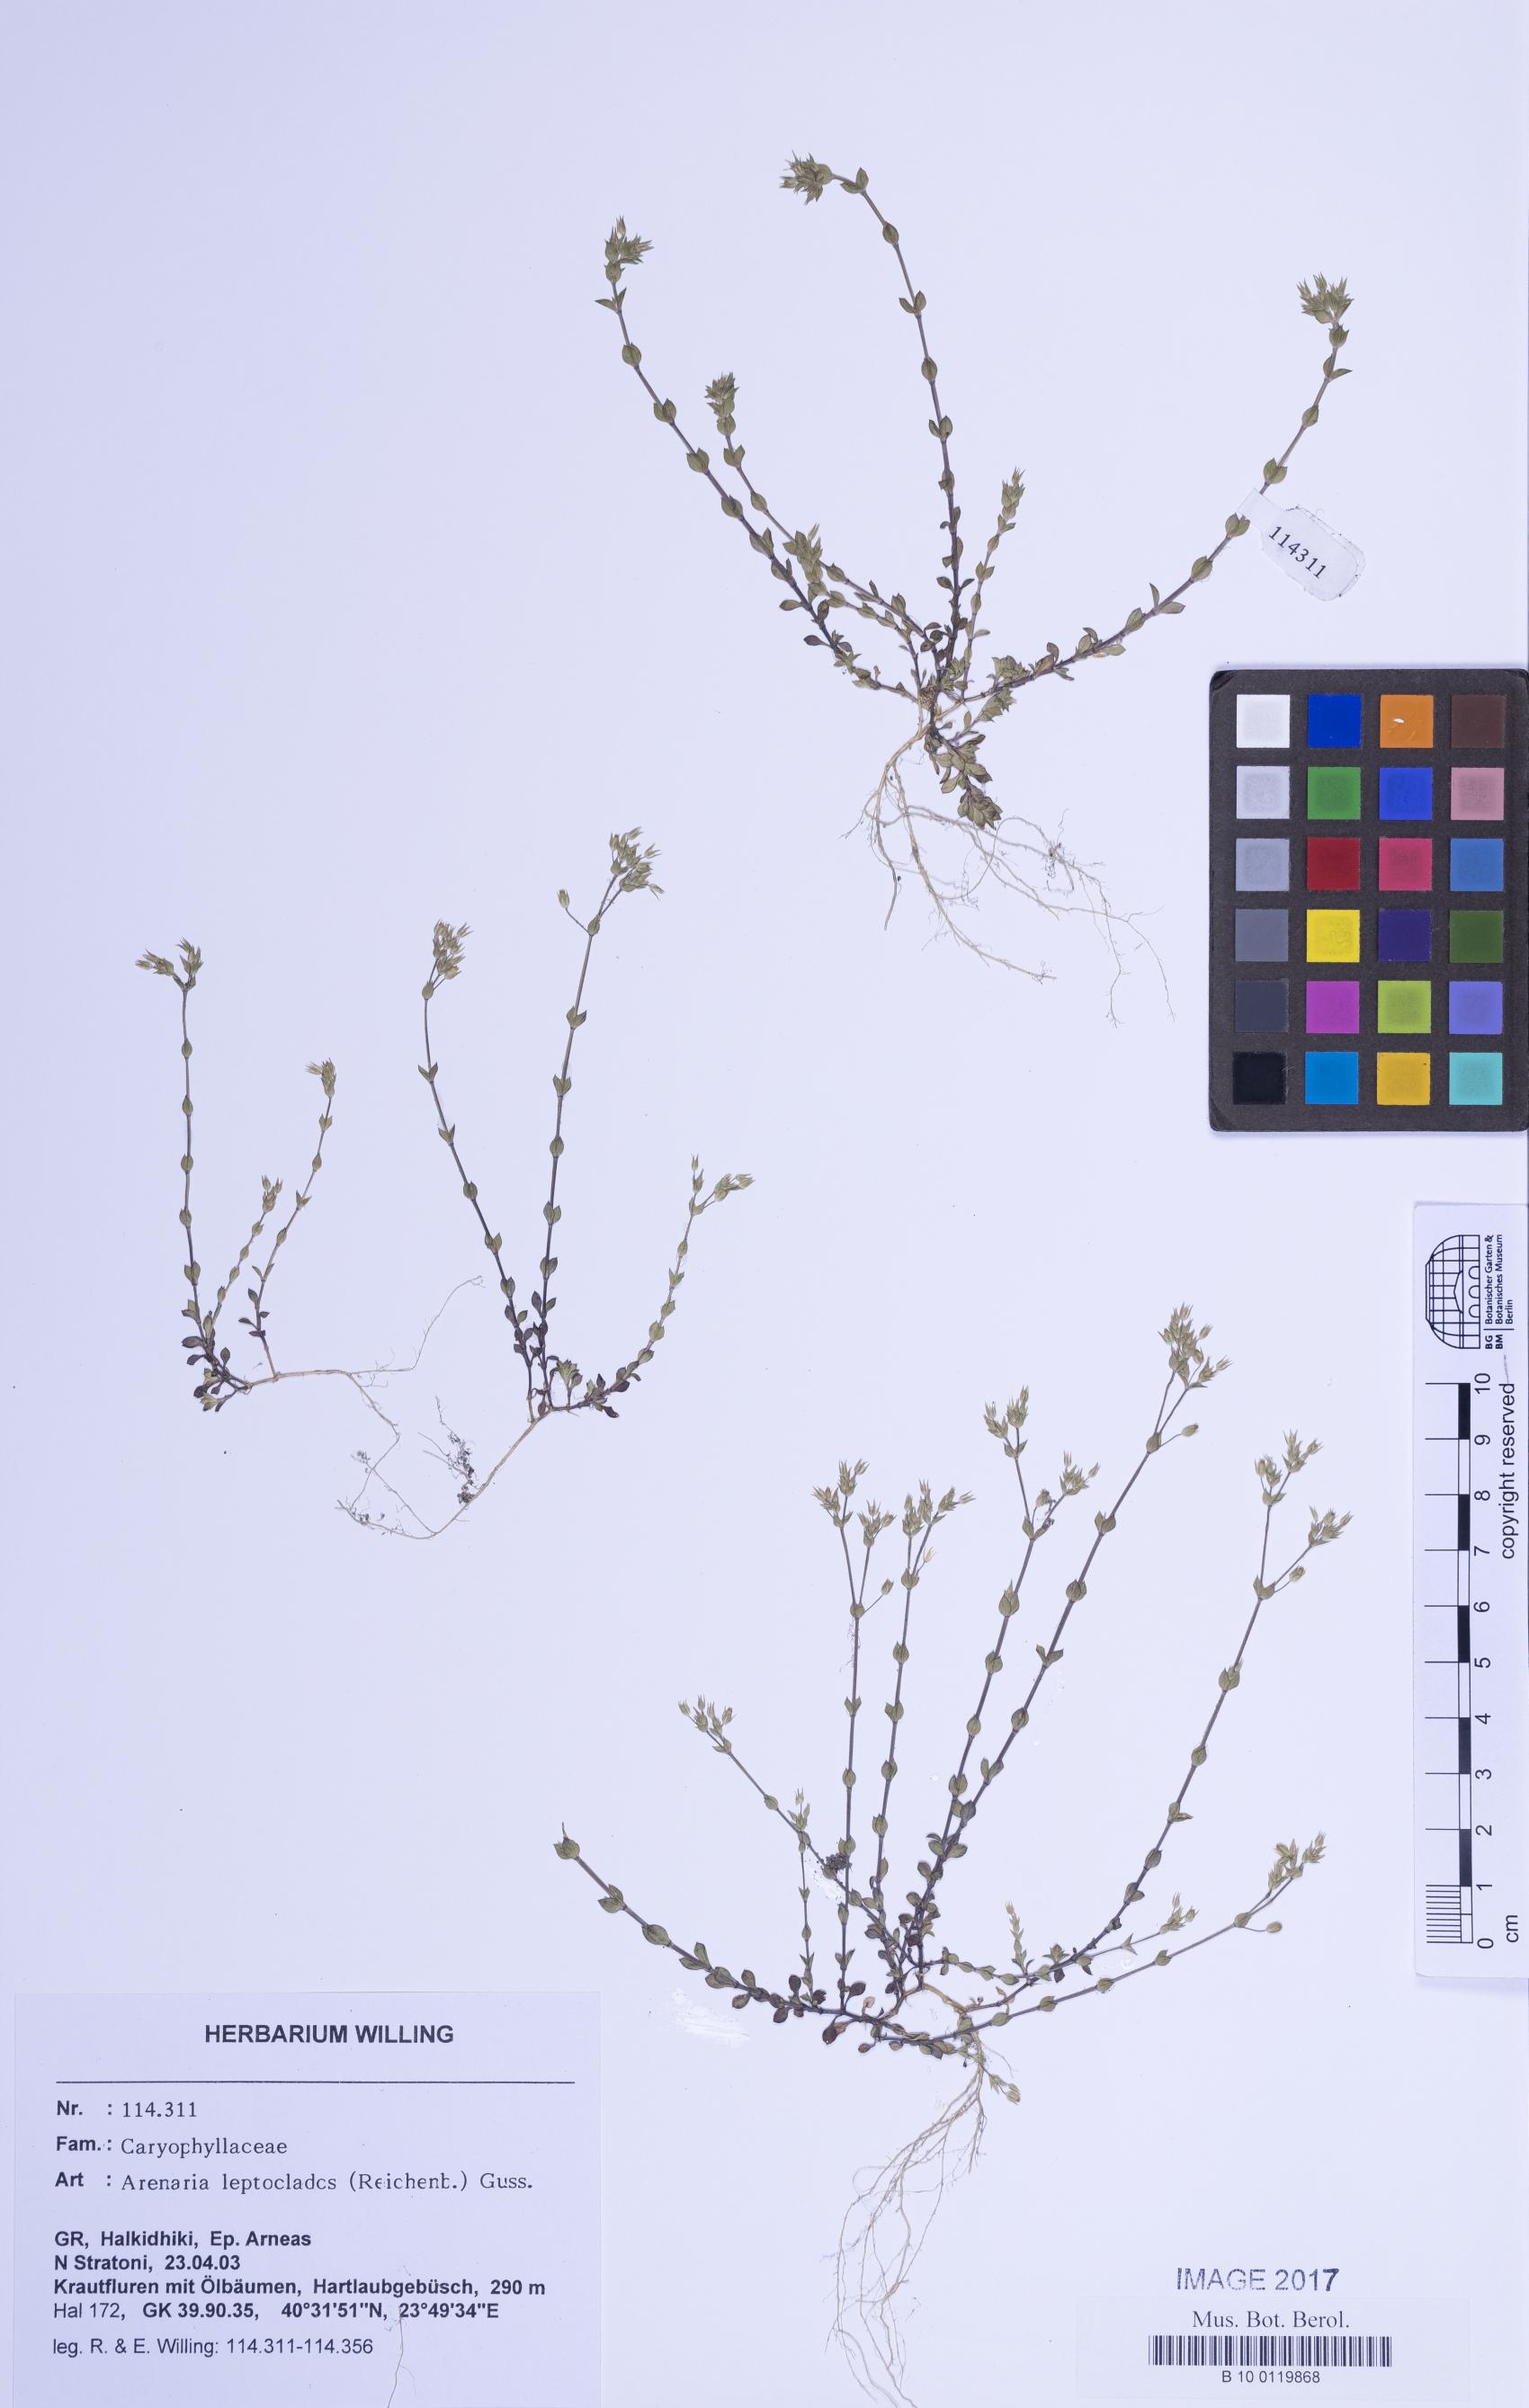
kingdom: Plantae
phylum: Tracheophyta
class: Magnoliopsida
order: Caryophyllales
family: Caryophyllaceae
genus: Arenaria
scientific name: Arenaria leptoclados
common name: Thyme-leaved sandwort
